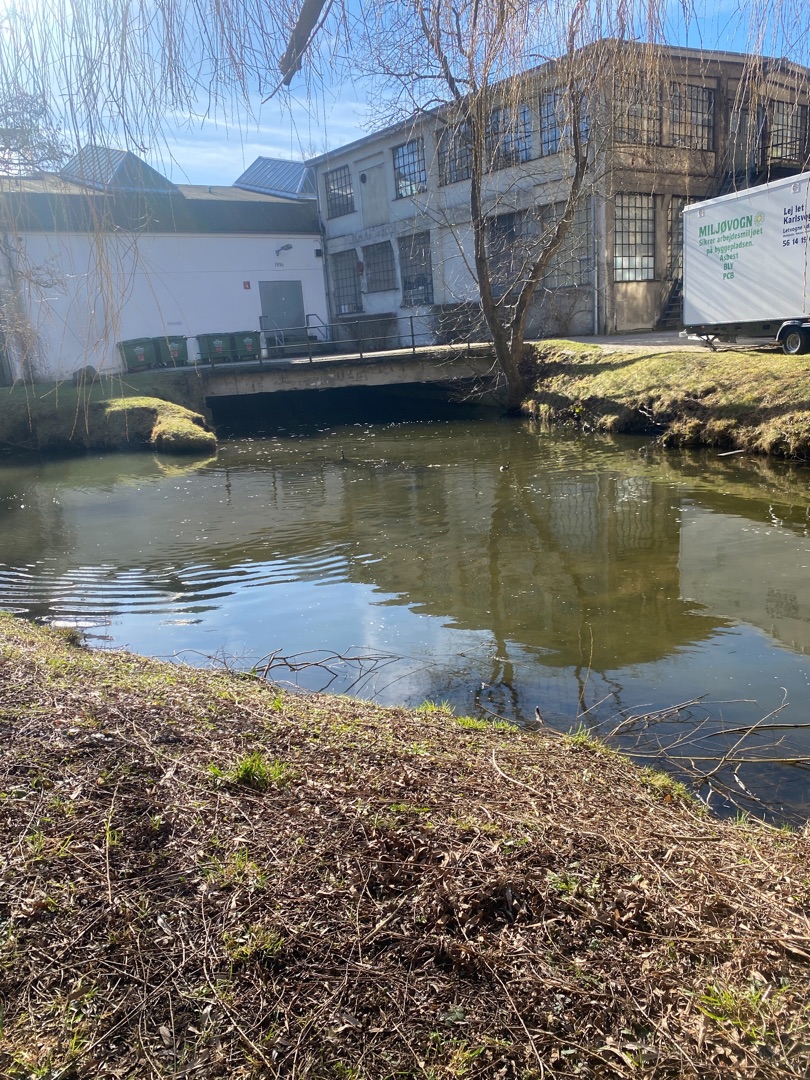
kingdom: Animalia
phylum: Chordata
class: Aves
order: Podicipediformes
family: Podicipedidae
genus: Tachybaptus
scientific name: Tachybaptus ruficollis
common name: Lille lappedykker
